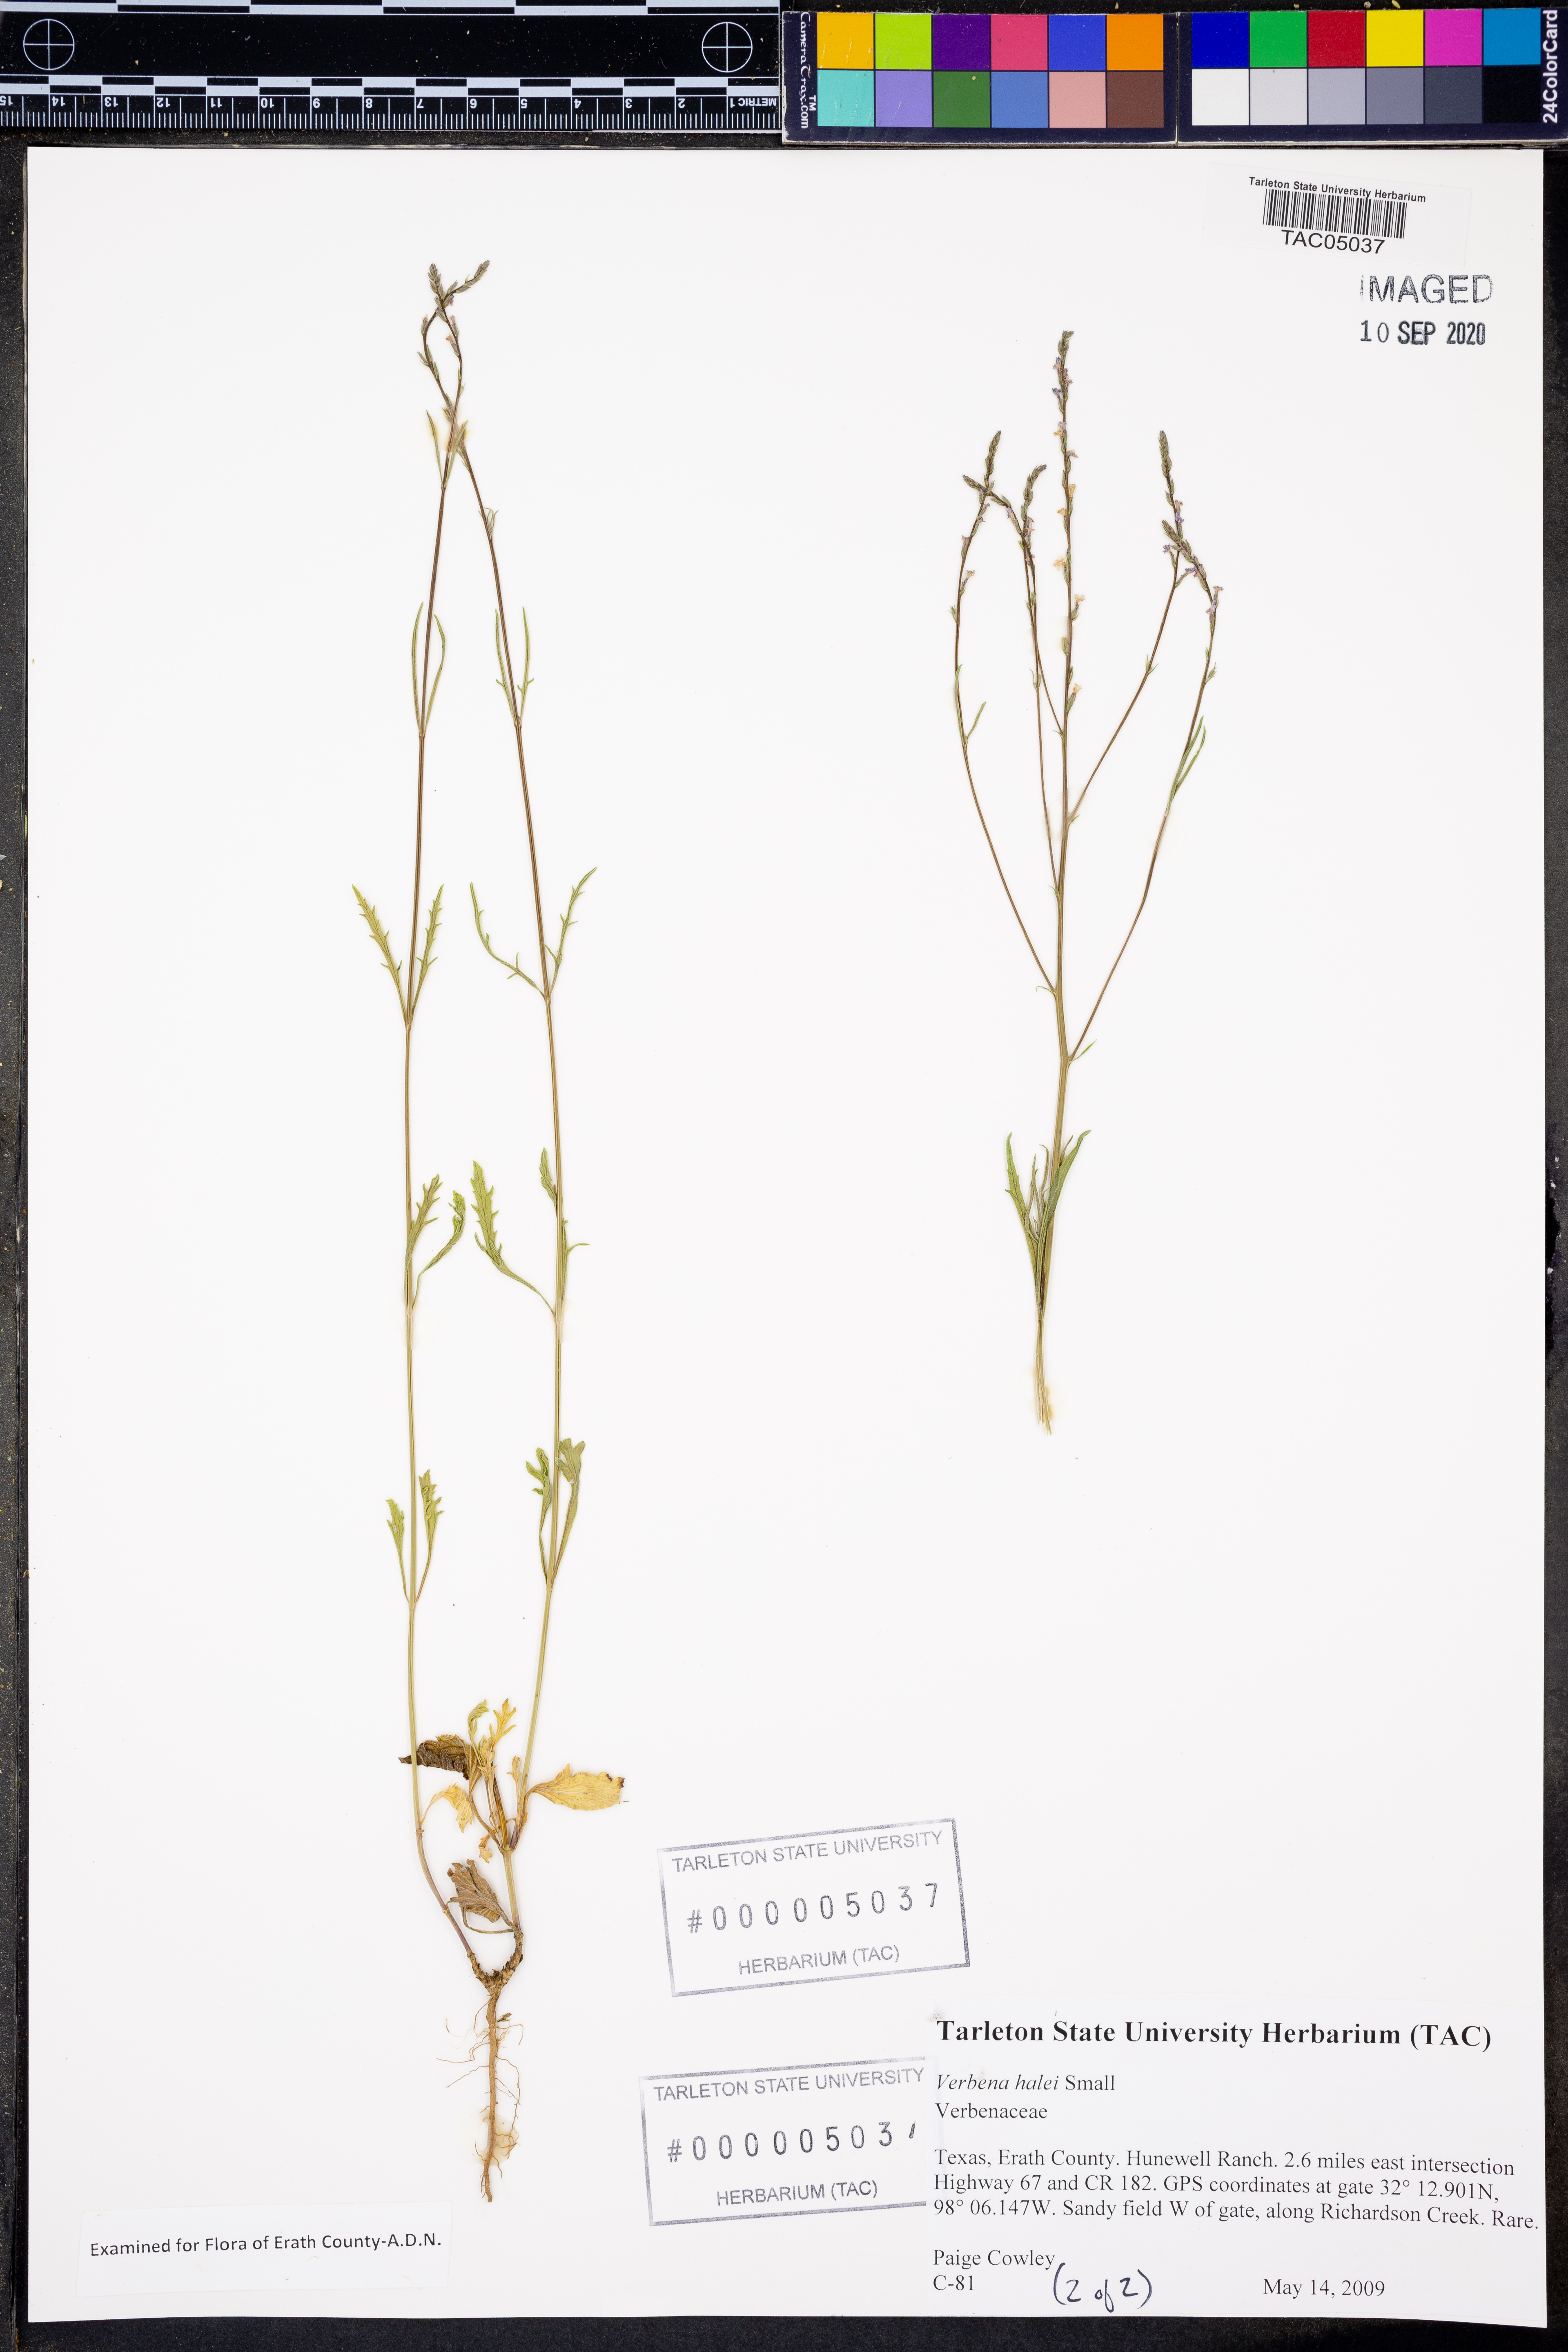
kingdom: Plantae
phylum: Tracheophyta
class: Magnoliopsida
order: Lamiales
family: Verbenaceae
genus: Verbena
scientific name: Verbena halei
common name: Texas vervain
